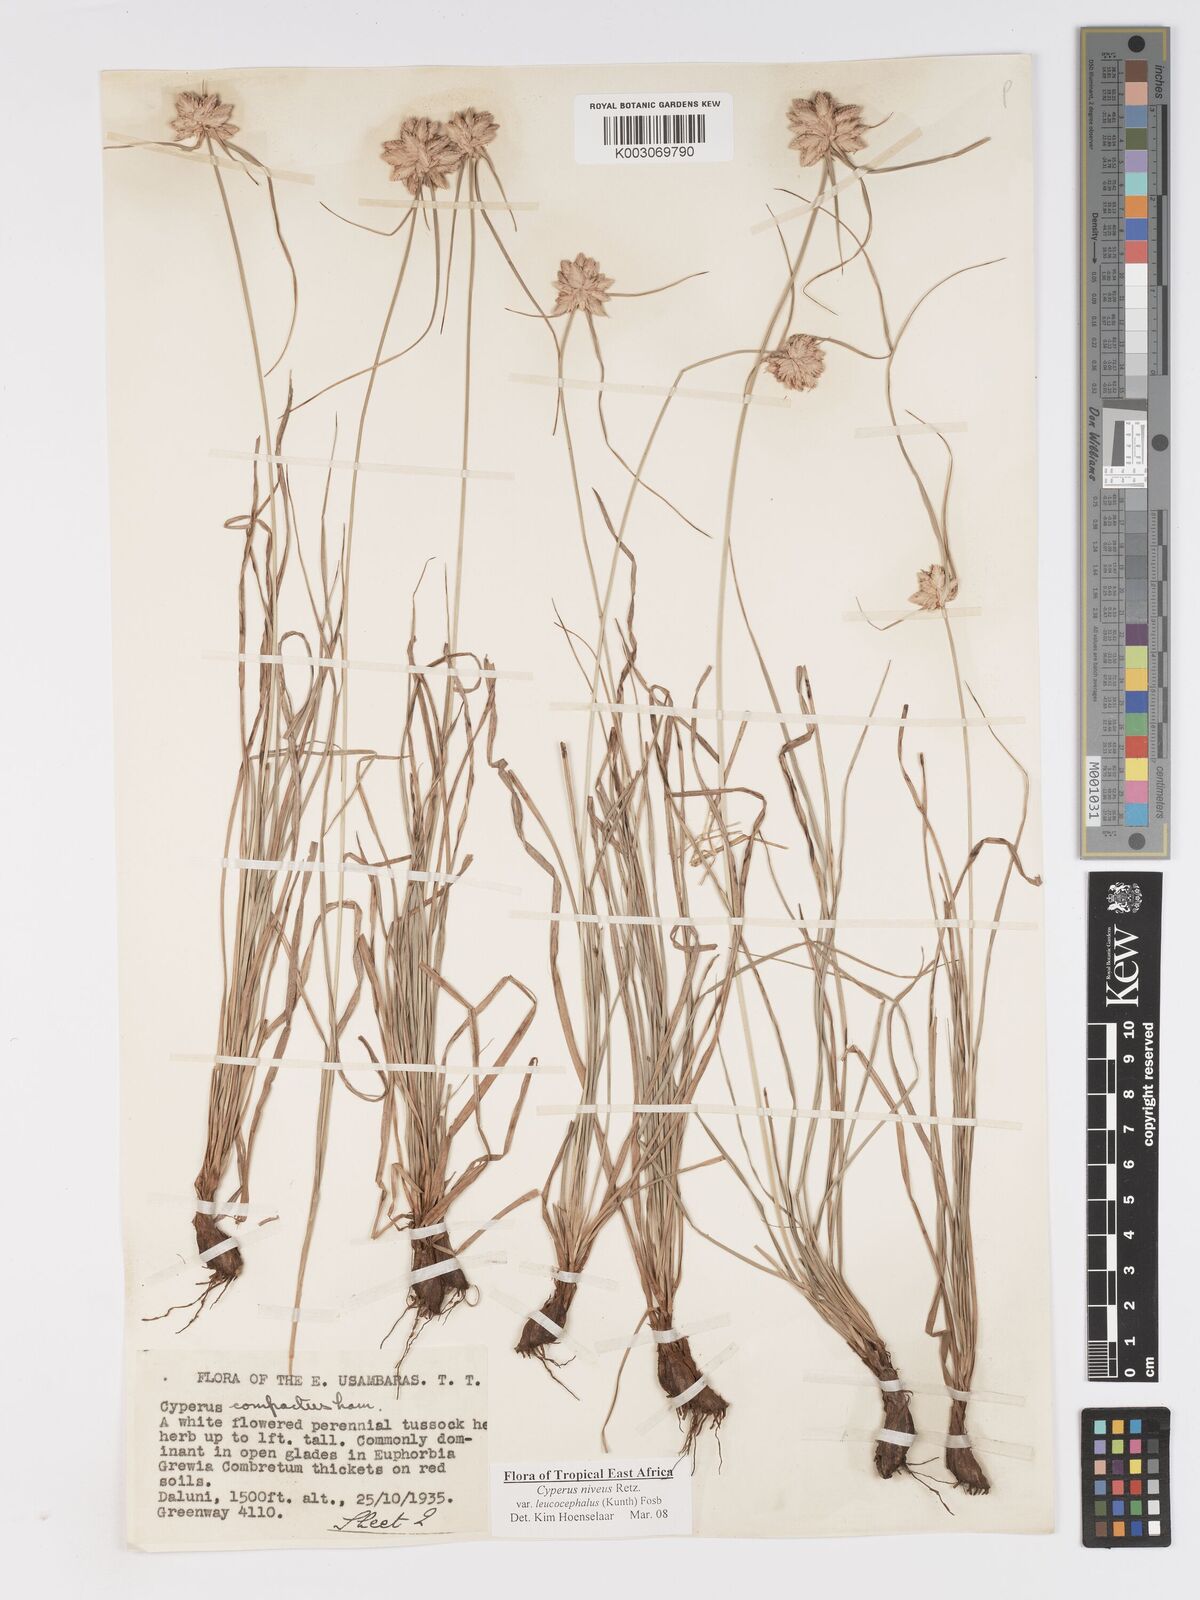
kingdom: Plantae
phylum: Tracheophyta
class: Liliopsida
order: Poales
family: Cyperaceae
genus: Cyperus
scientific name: Cyperus niveus
